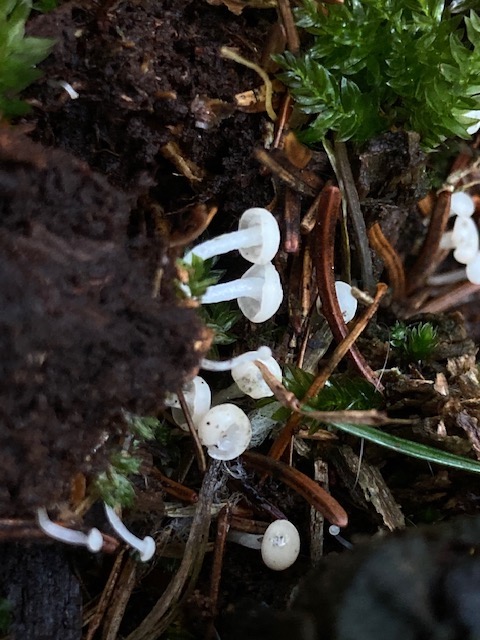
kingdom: Fungi
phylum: Ascomycota
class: Leotiomycetes
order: Helotiales
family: Tricladiaceae
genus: Cudoniella
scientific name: Cudoniella acicularis
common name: ege-dyndskive
